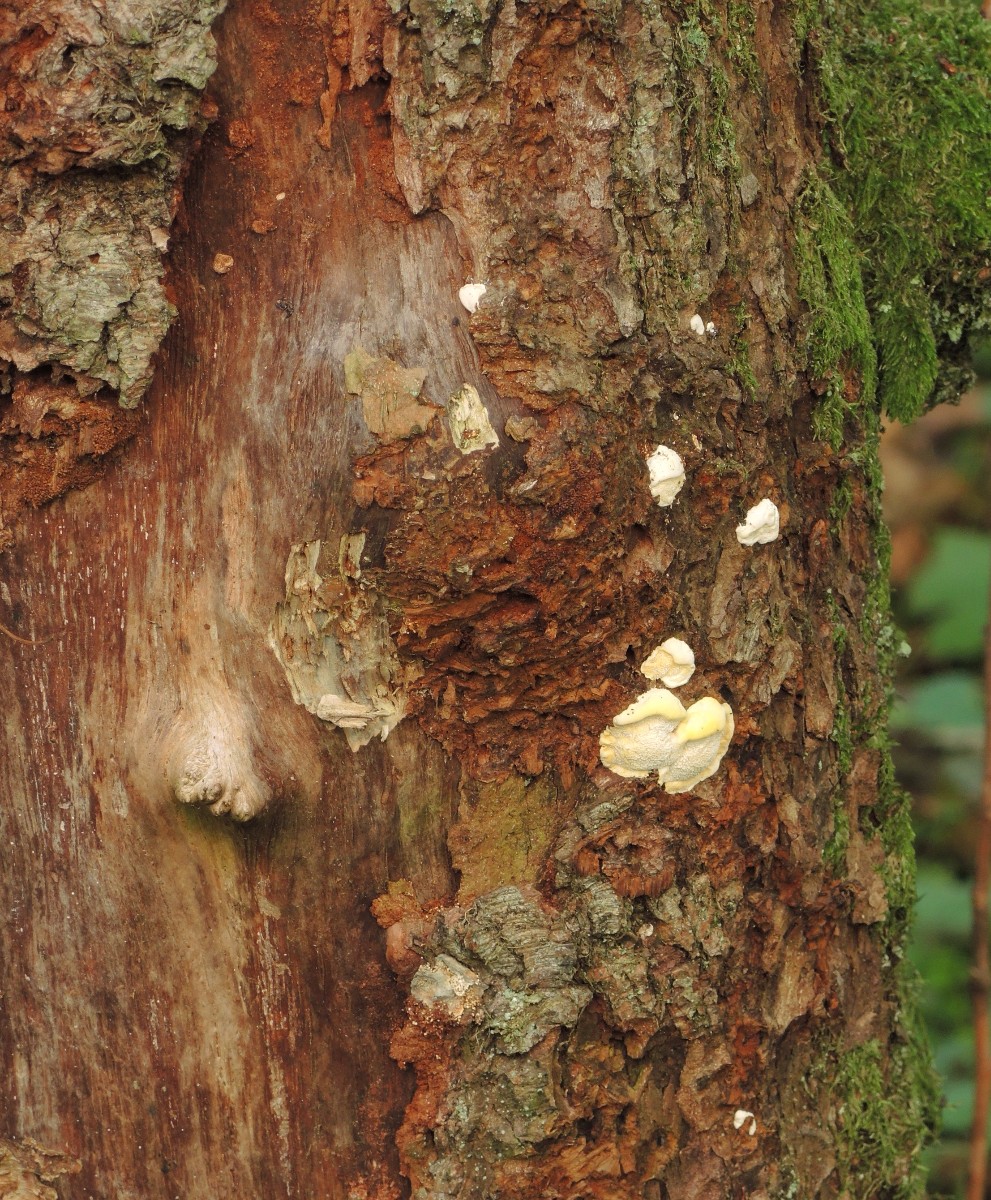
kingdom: Fungi
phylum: Basidiomycota
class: Agaricomycetes
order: Polyporales
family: Steccherinaceae
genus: Antrodiella
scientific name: Antrodiella serpula
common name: gulrandet elastikporesvamp
